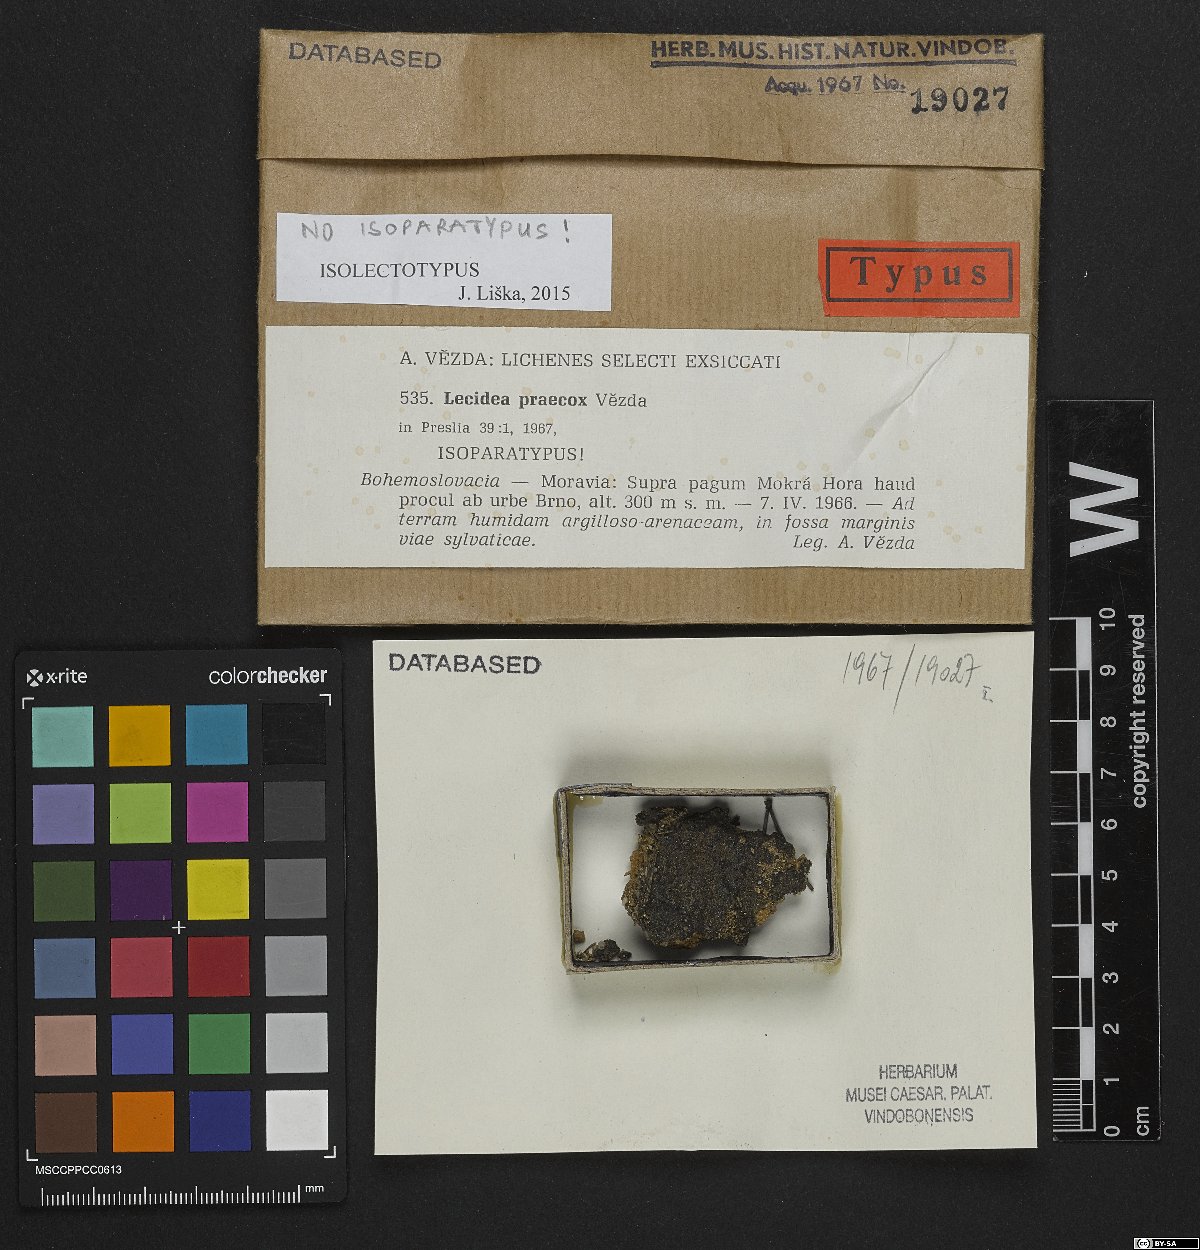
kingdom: Fungi
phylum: Ascomycota
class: Lecanoromycetes
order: Lecanorales
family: Aphanopsidaceae
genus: Aphanopsis
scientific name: Aphanopsis coenosa
